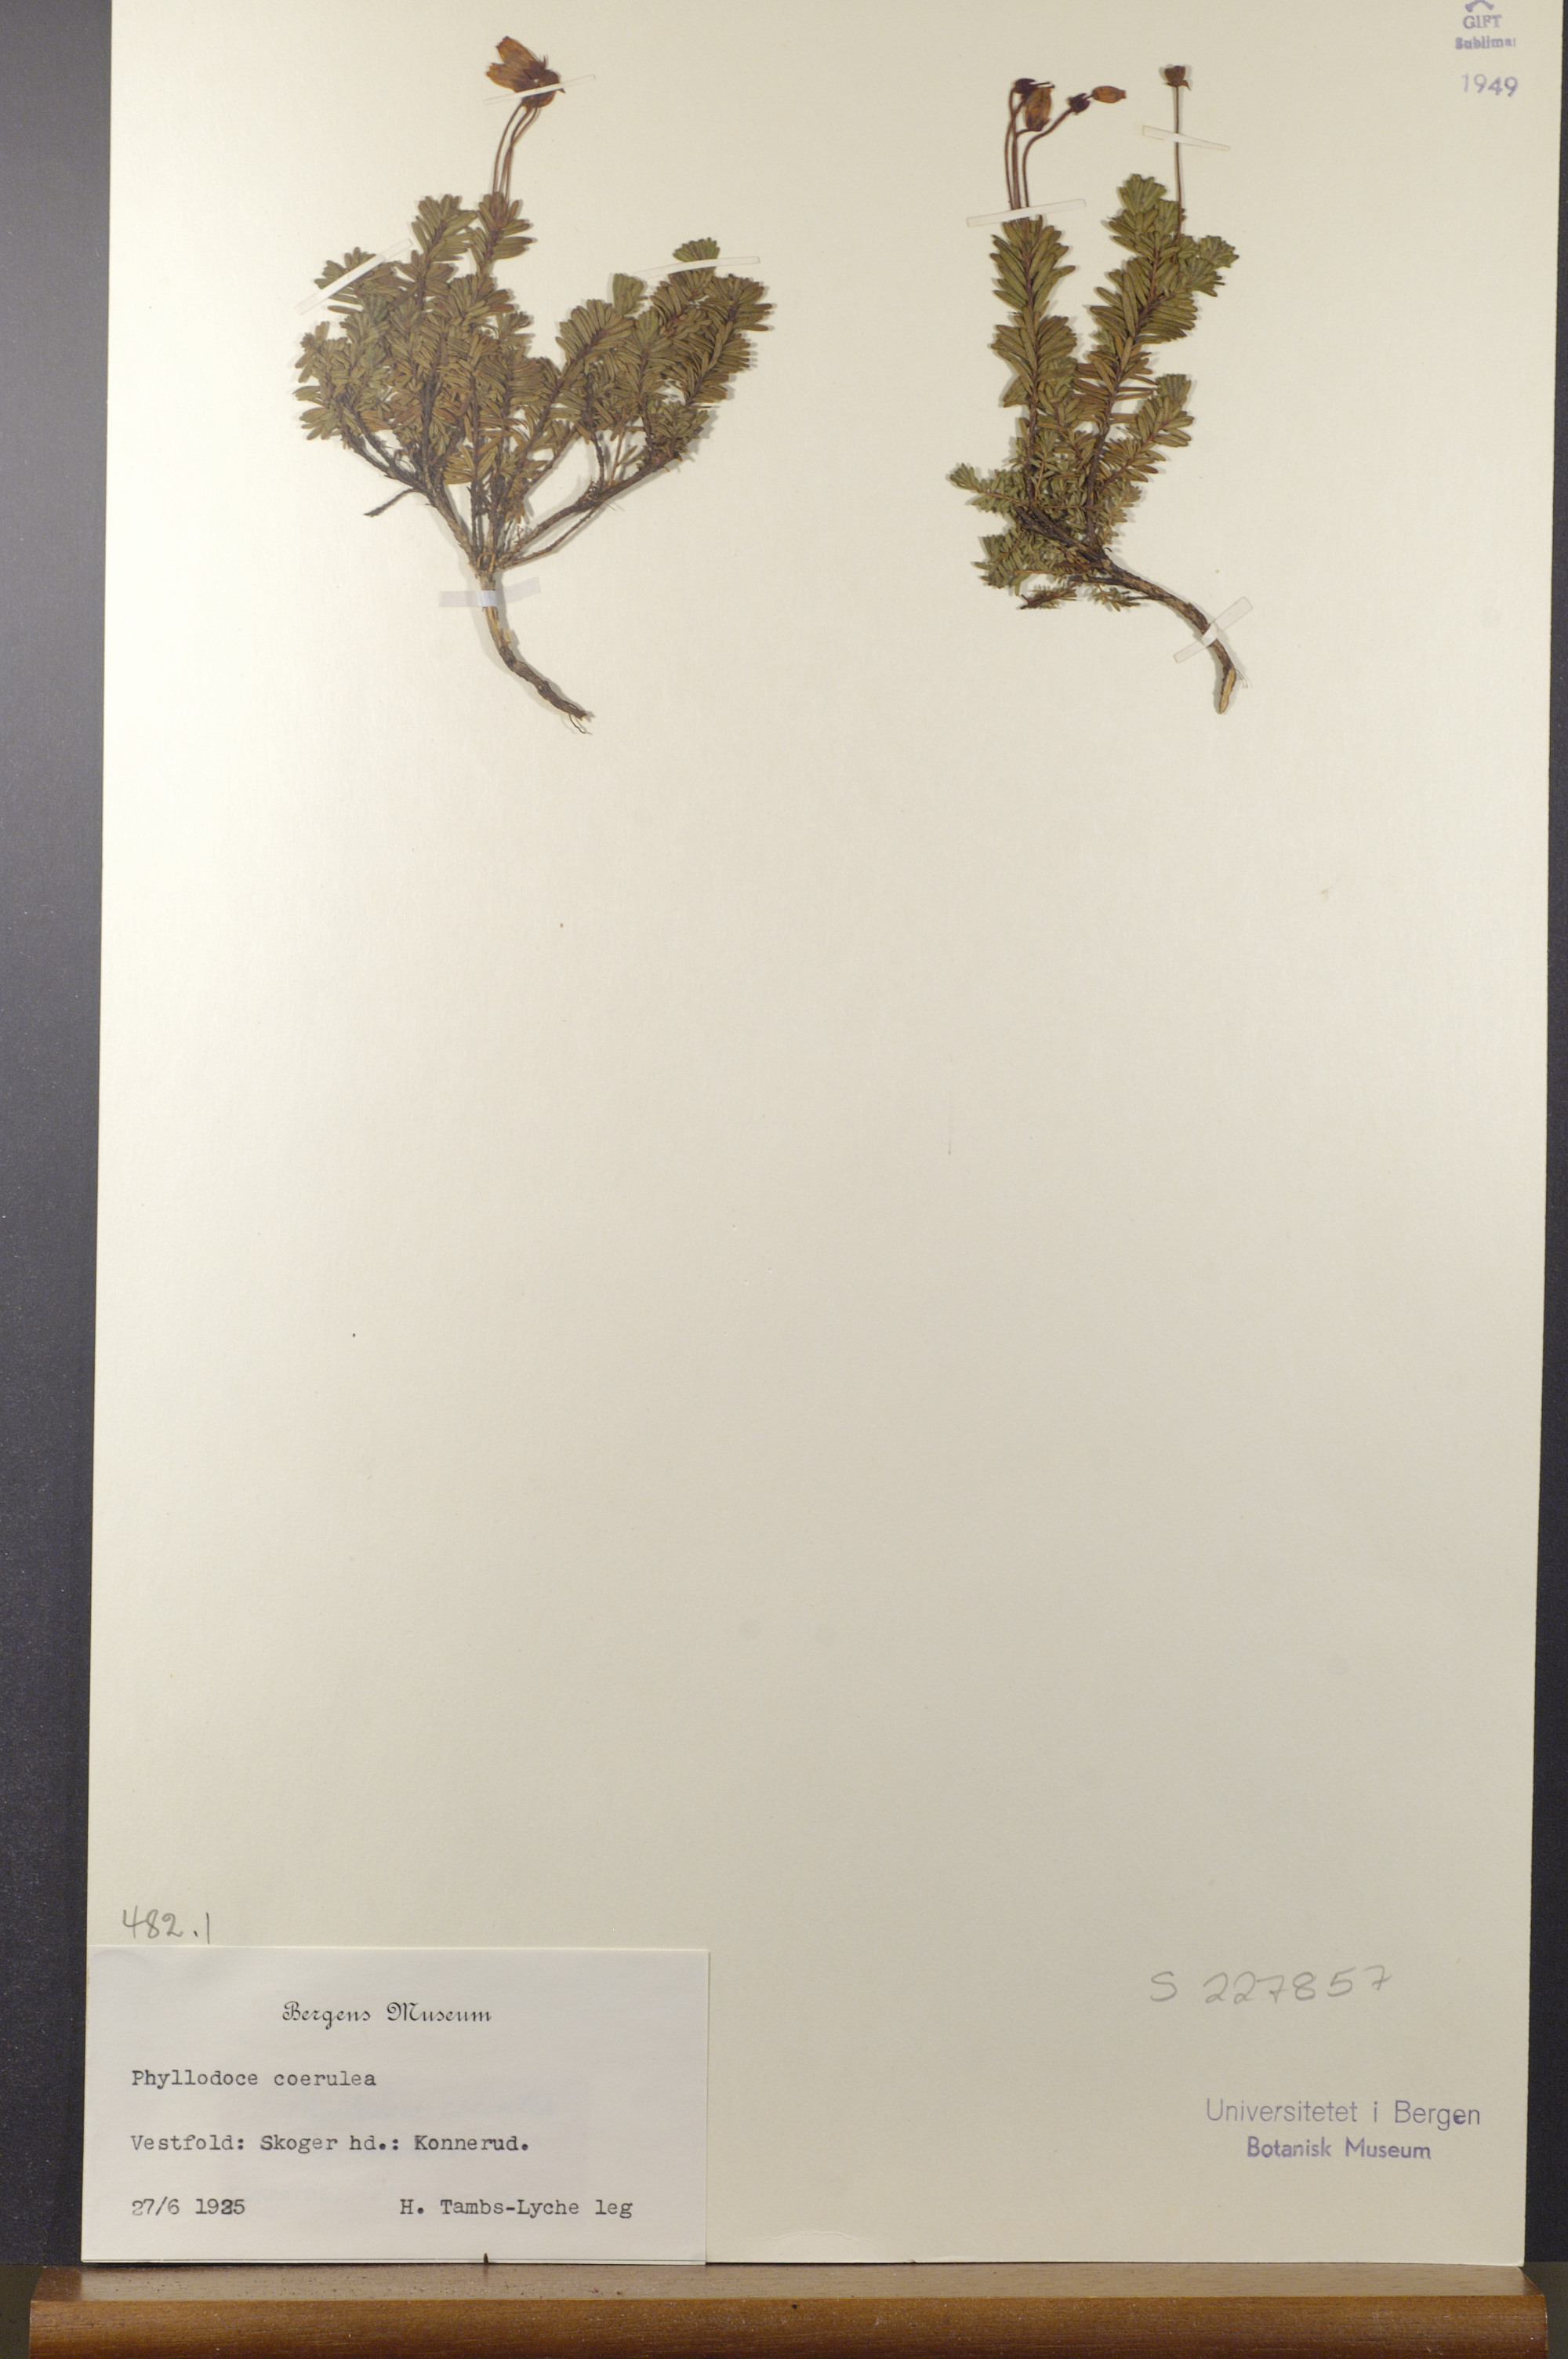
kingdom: Plantae
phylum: Tracheophyta
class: Magnoliopsida
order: Ericales
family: Ericaceae
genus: Phyllodoce
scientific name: Phyllodoce caerulea
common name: Blue heath
